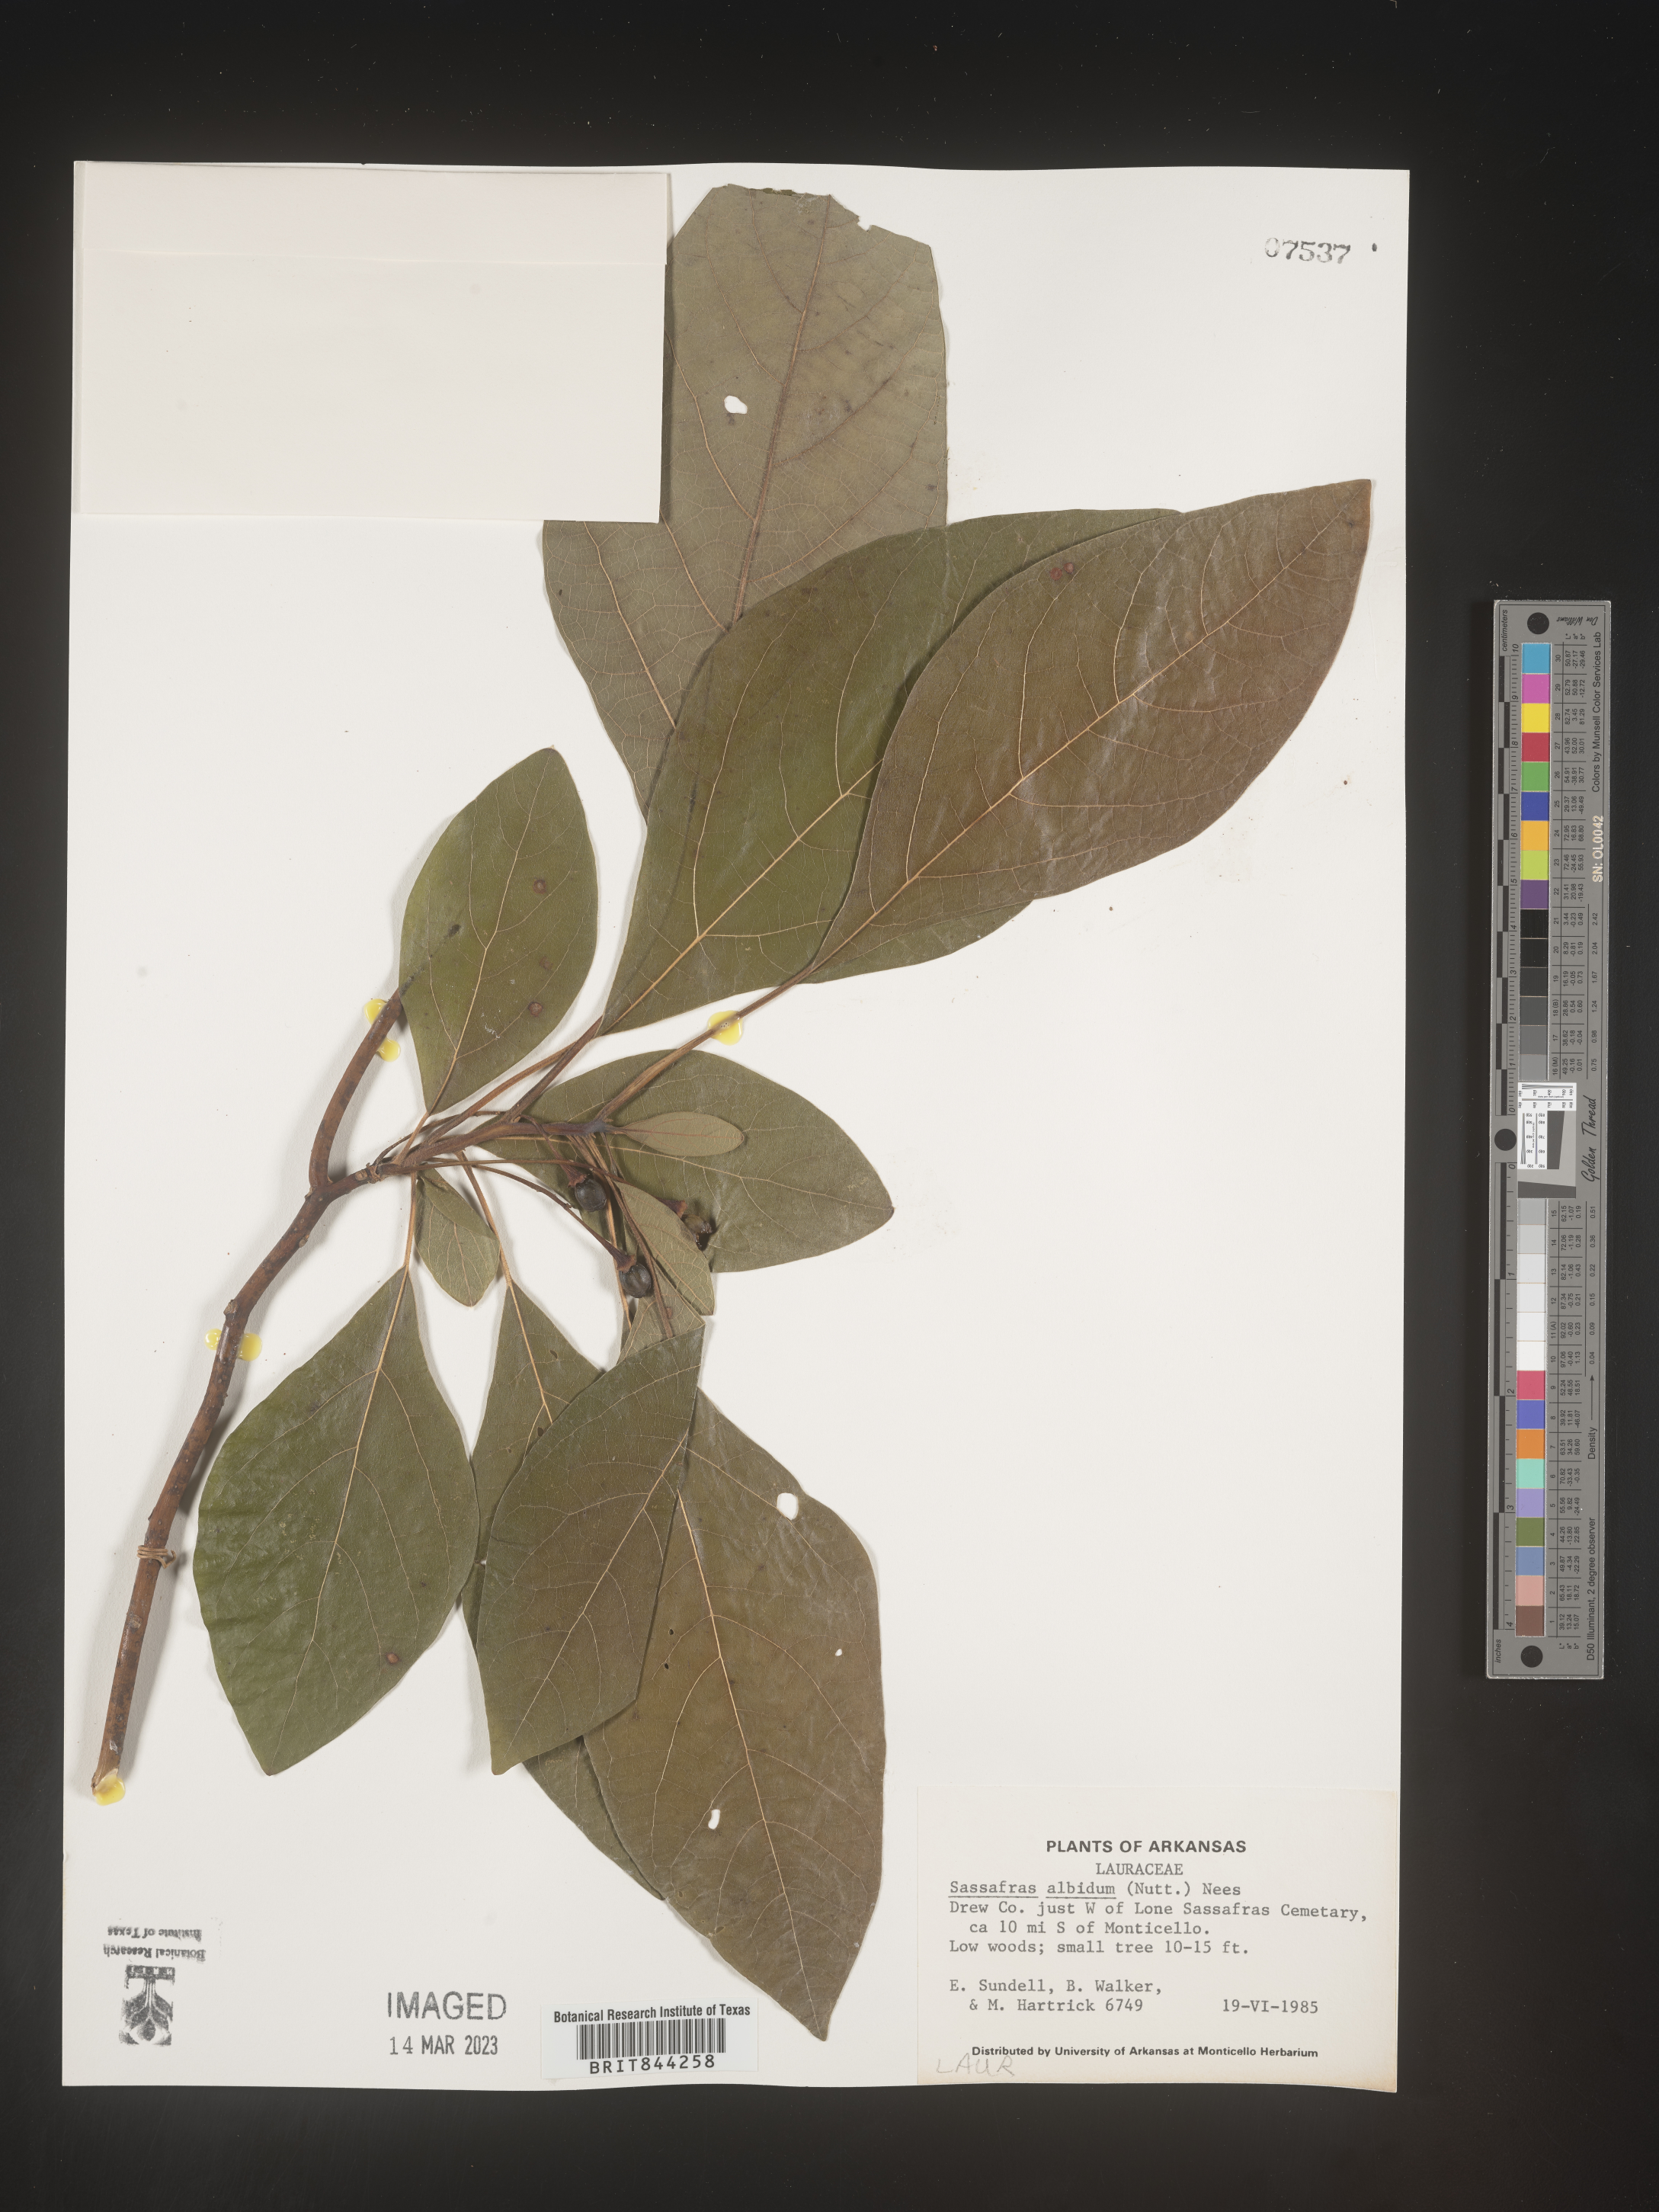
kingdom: Plantae
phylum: Tracheophyta
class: Magnoliopsida
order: Laurales
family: Lauraceae
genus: Sassafras
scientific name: Sassafras albidum
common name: Sassafras
